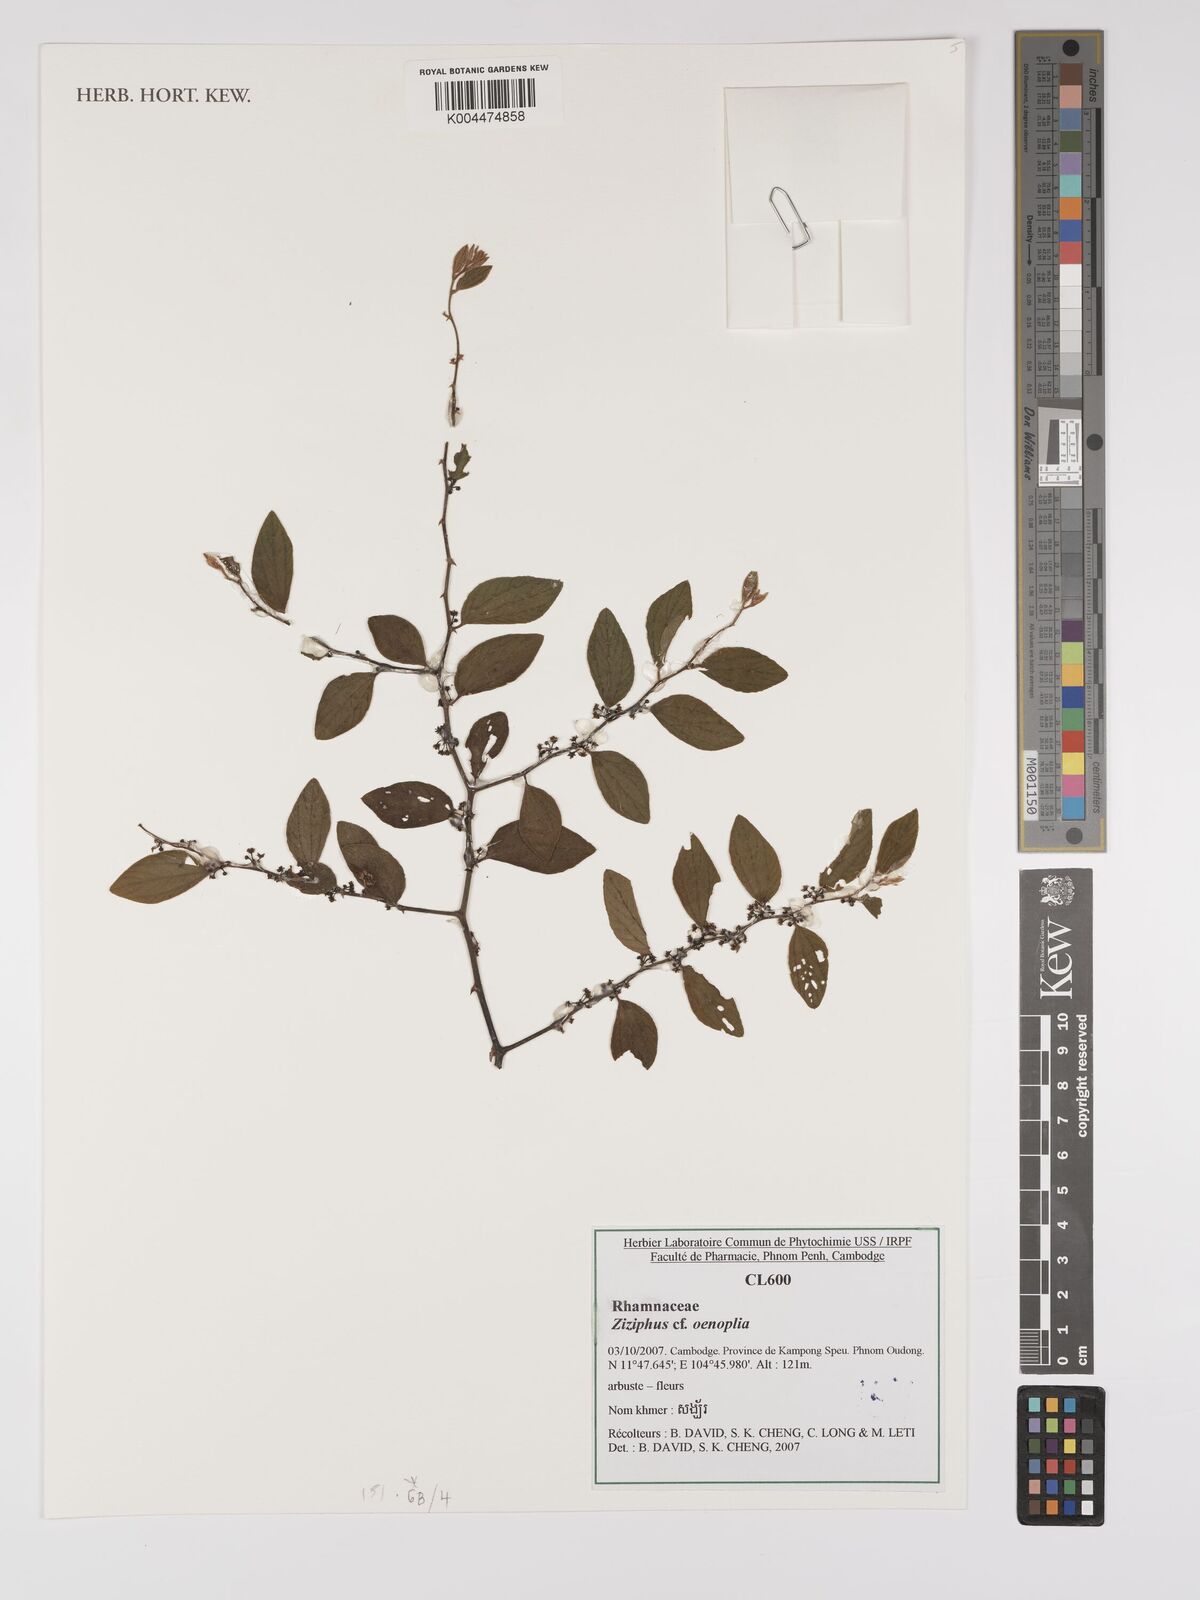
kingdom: Plantae
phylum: Tracheophyta
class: Magnoliopsida
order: Rosales
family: Rhamnaceae
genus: Ziziphus
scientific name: Ziziphus oenopolia
